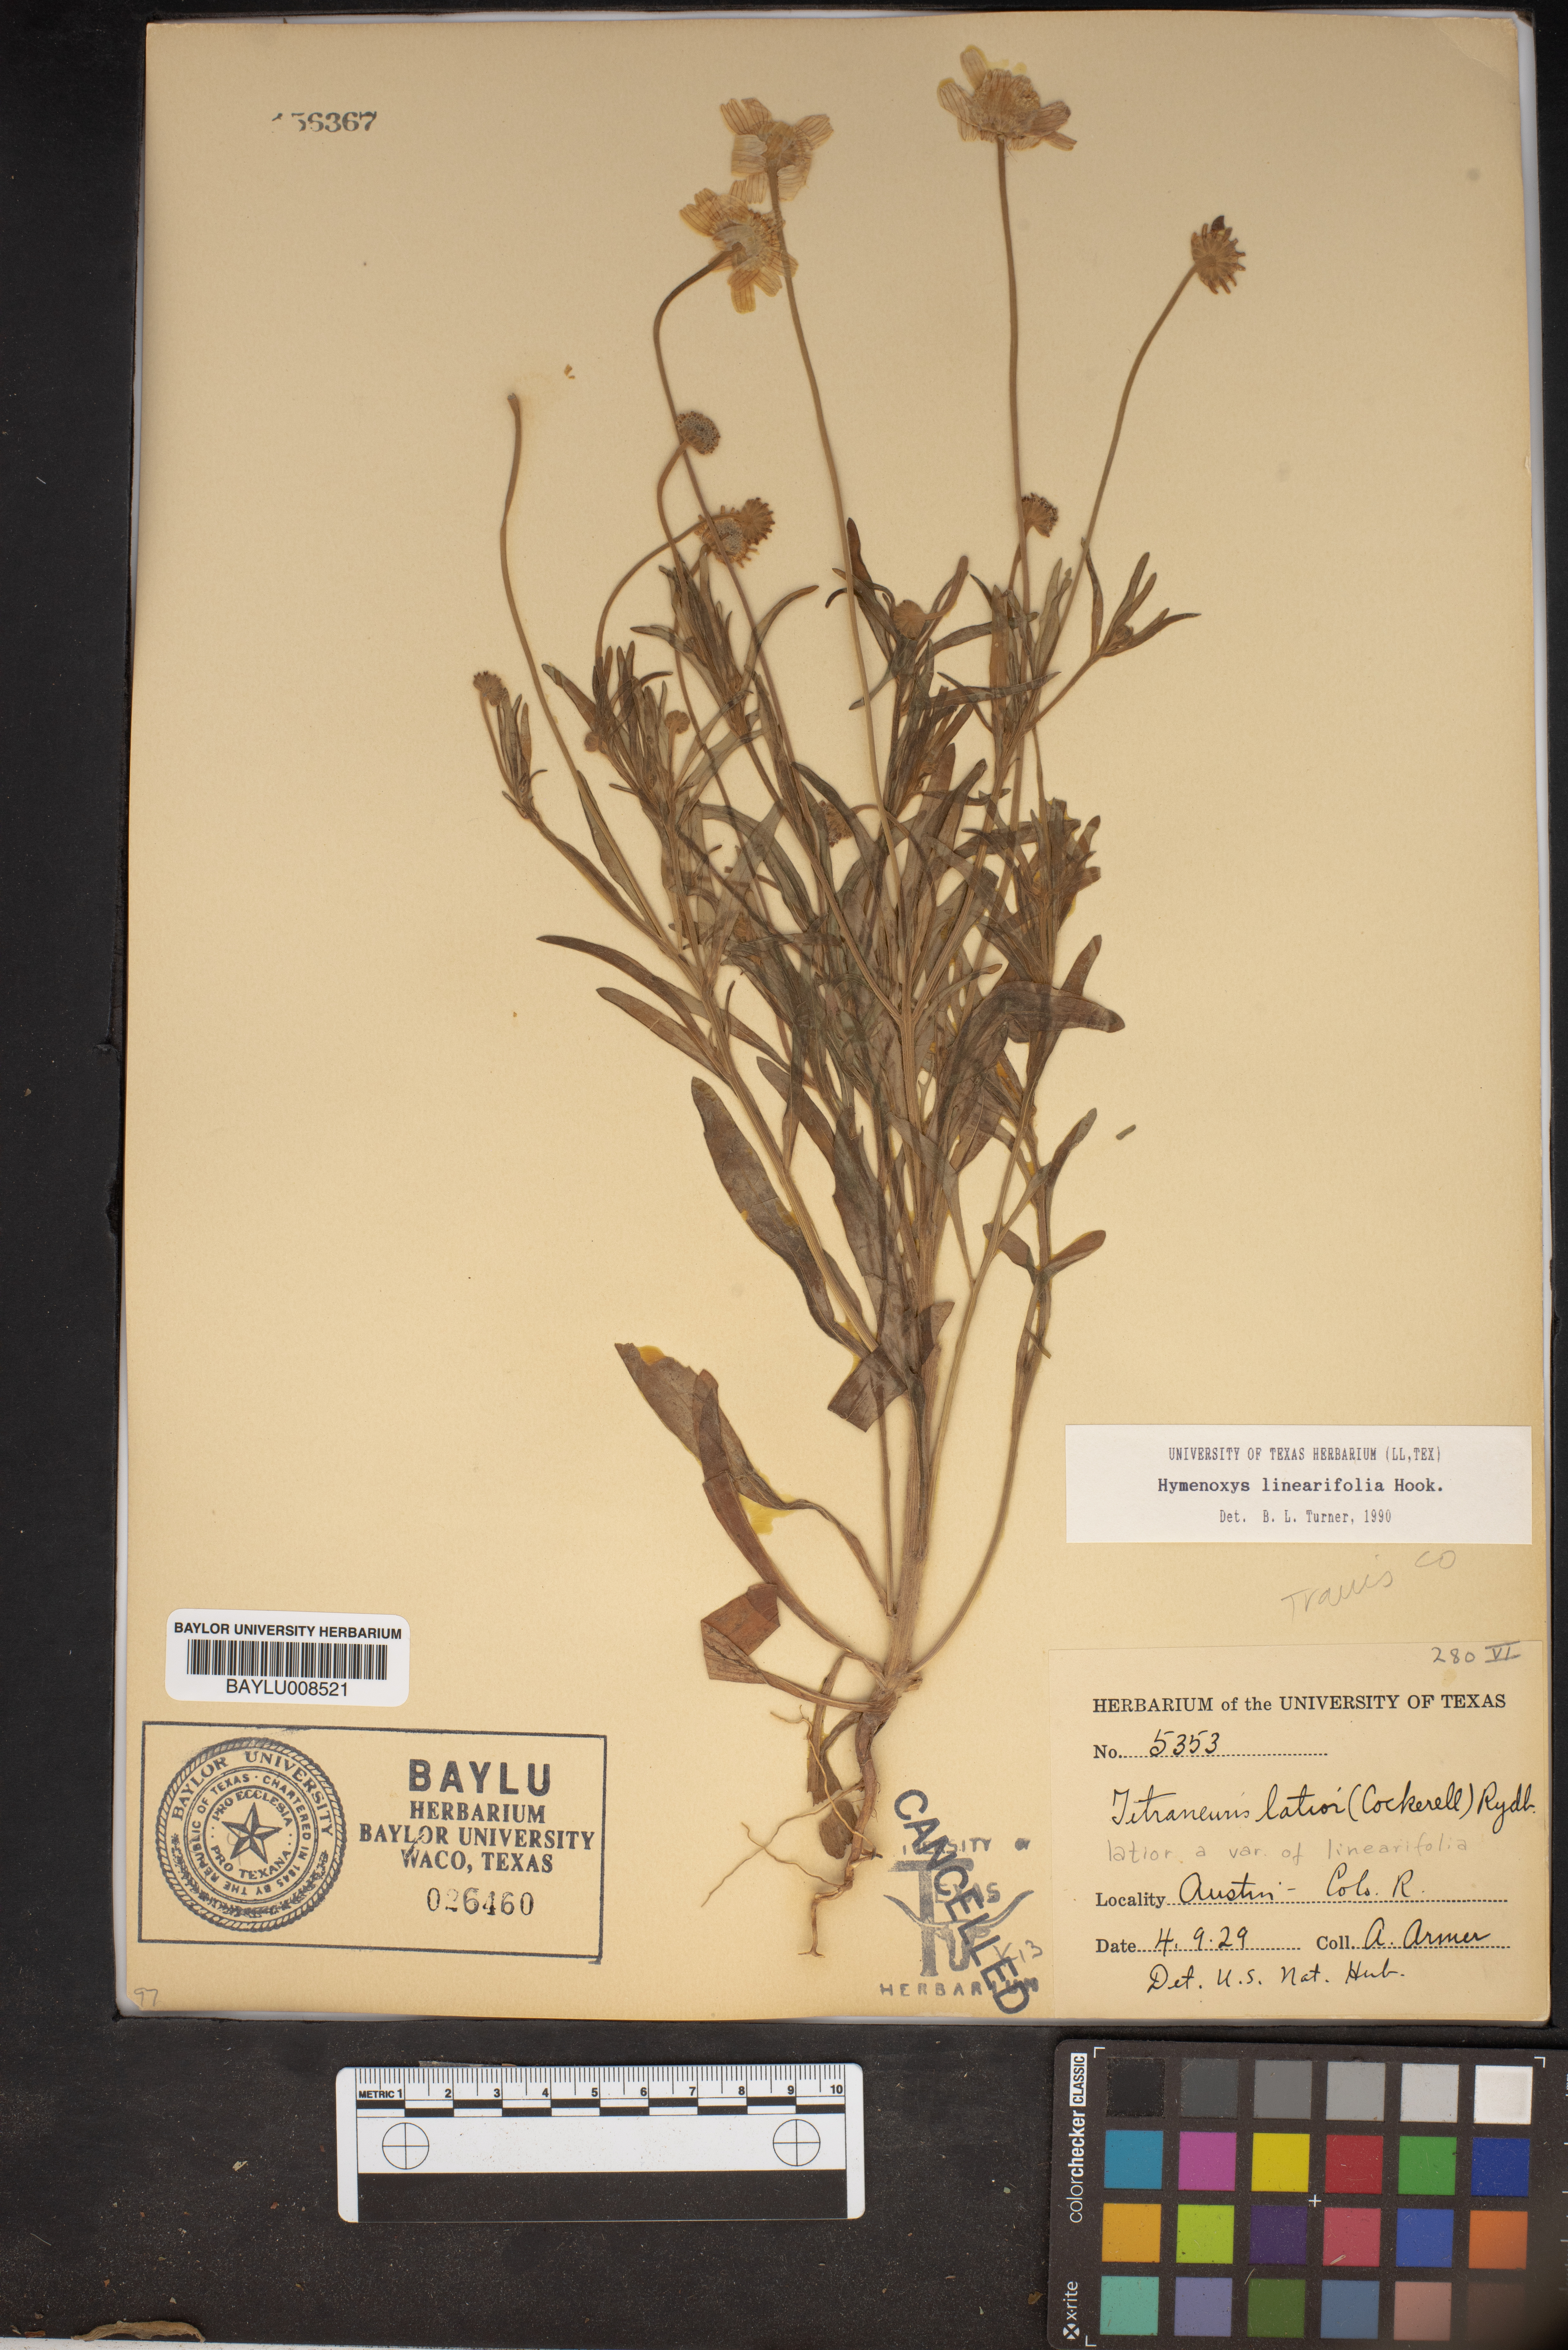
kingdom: Plantae
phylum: Tracheophyta
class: Magnoliopsida
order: Asterales
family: Asteraceae
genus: Tetraneuris
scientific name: Tetraneuris linearifolia
